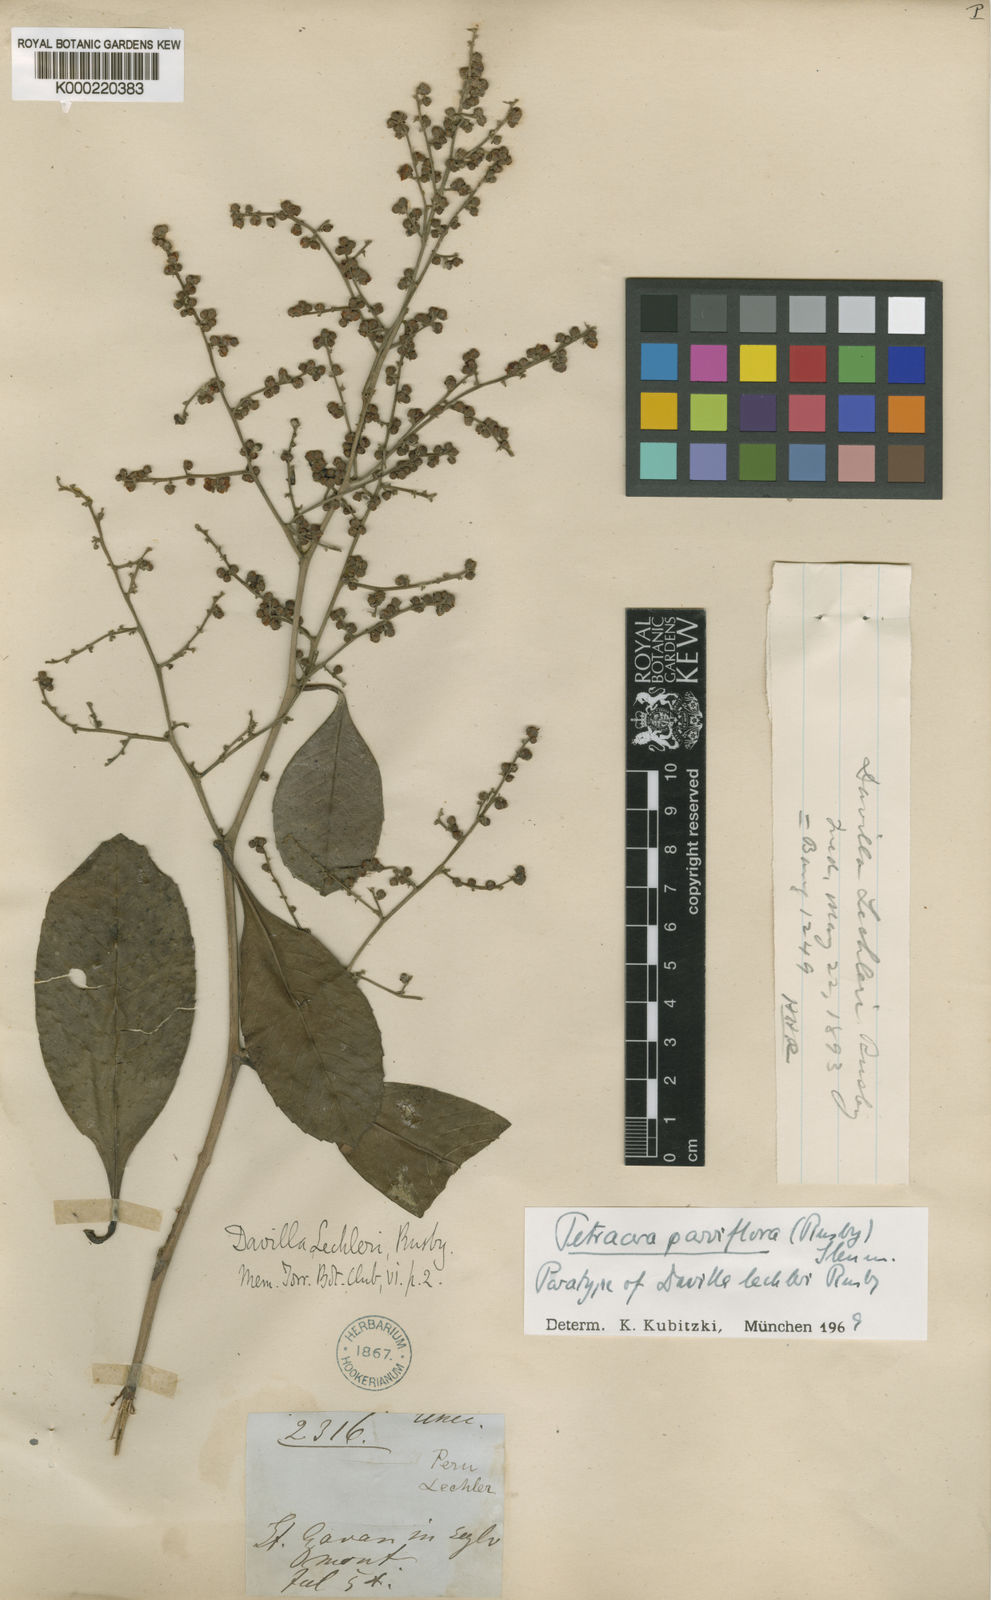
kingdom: Plantae
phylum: Tracheophyta
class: Magnoliopsida
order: Dilleniales
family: Dilleniaceae
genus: Tetracera
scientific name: Tetracera parviflora
